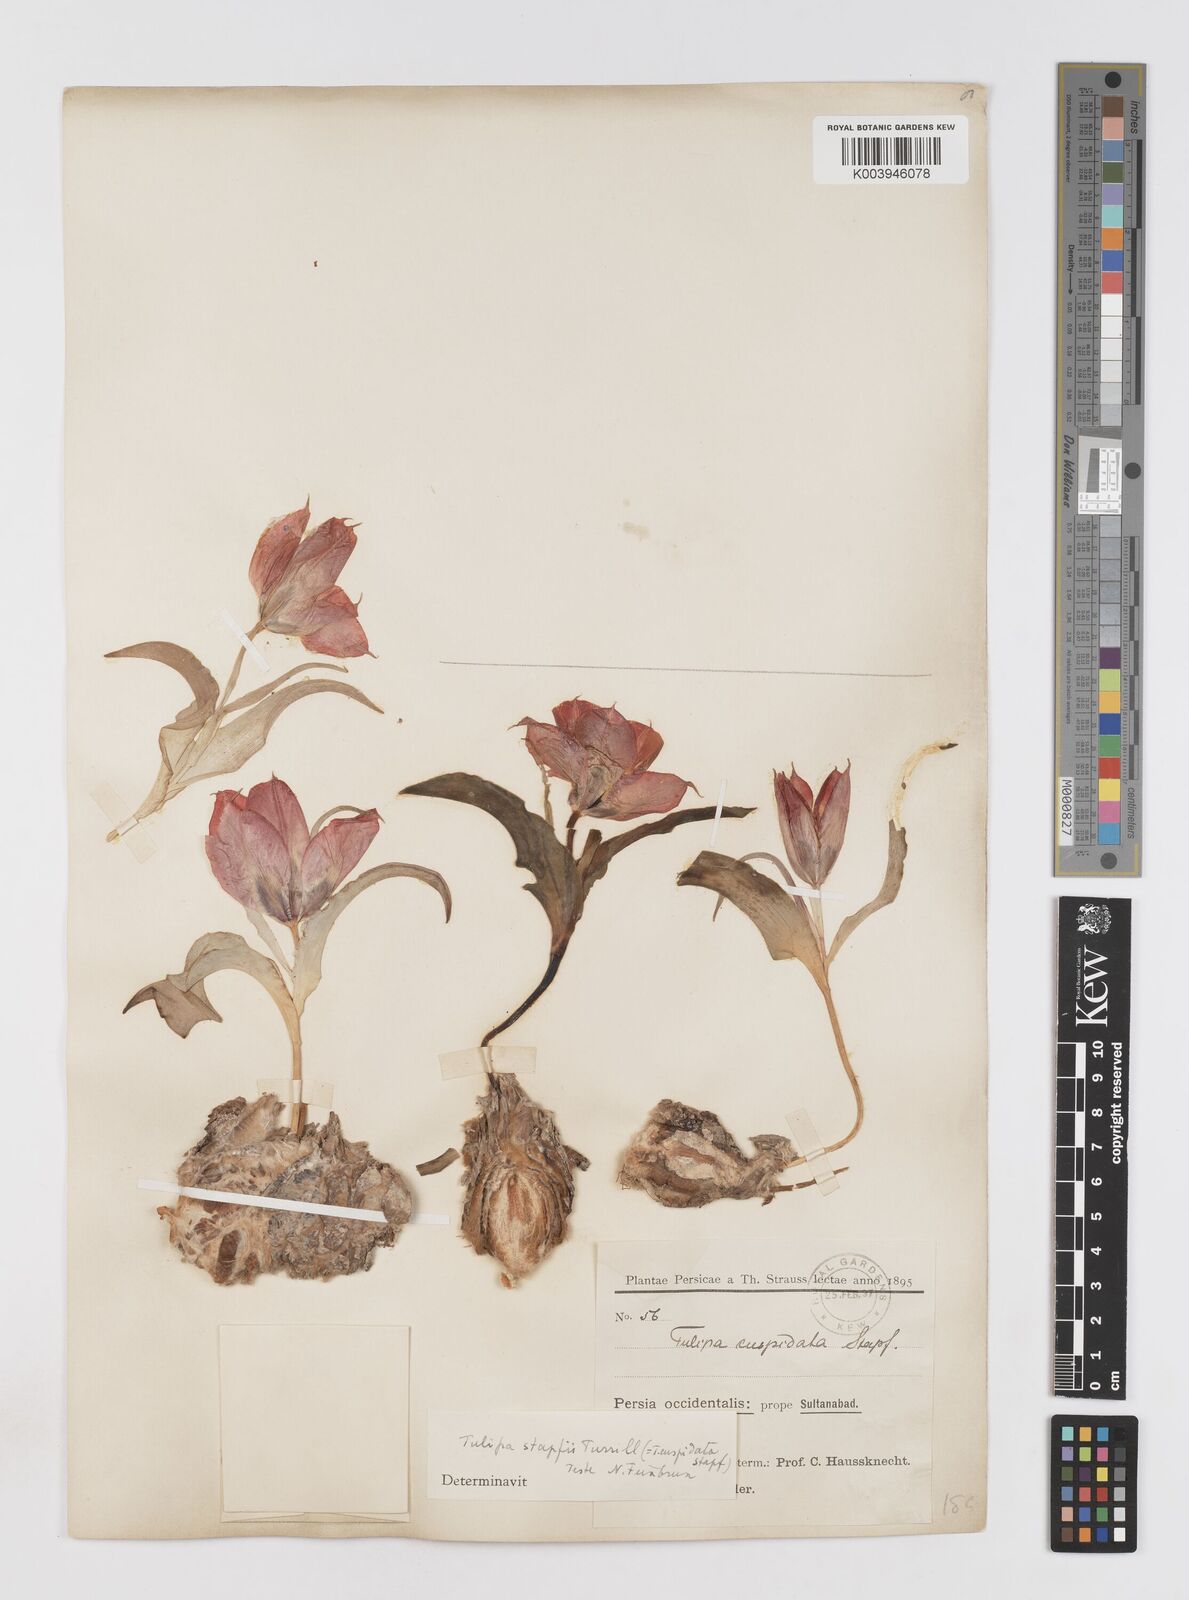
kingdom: Plantae
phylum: Tracheophyta
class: Liliopsida
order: Liliales
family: Liliaceae
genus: Tulipa
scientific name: Tulipa systola
